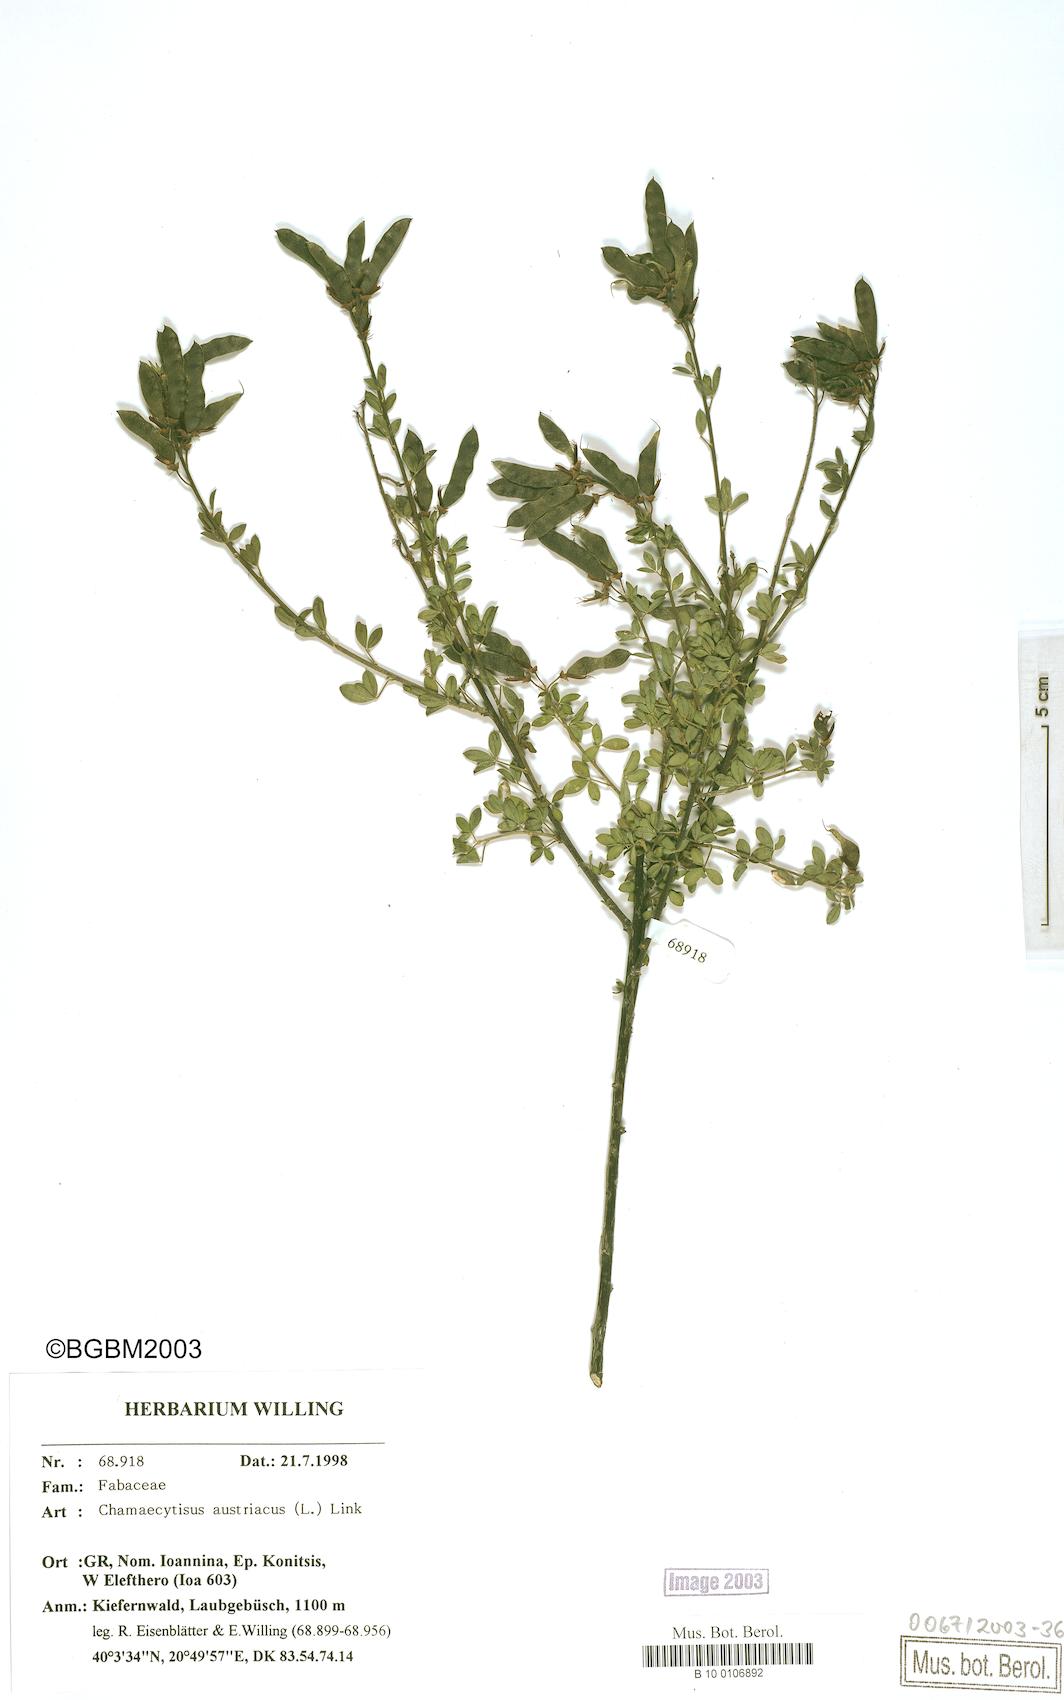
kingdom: Plantae
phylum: Tracheophyta
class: Magnoliopsida
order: Fabales
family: Fabaceae
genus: Chamaecytisus
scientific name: Chamaecytisus austriacus
